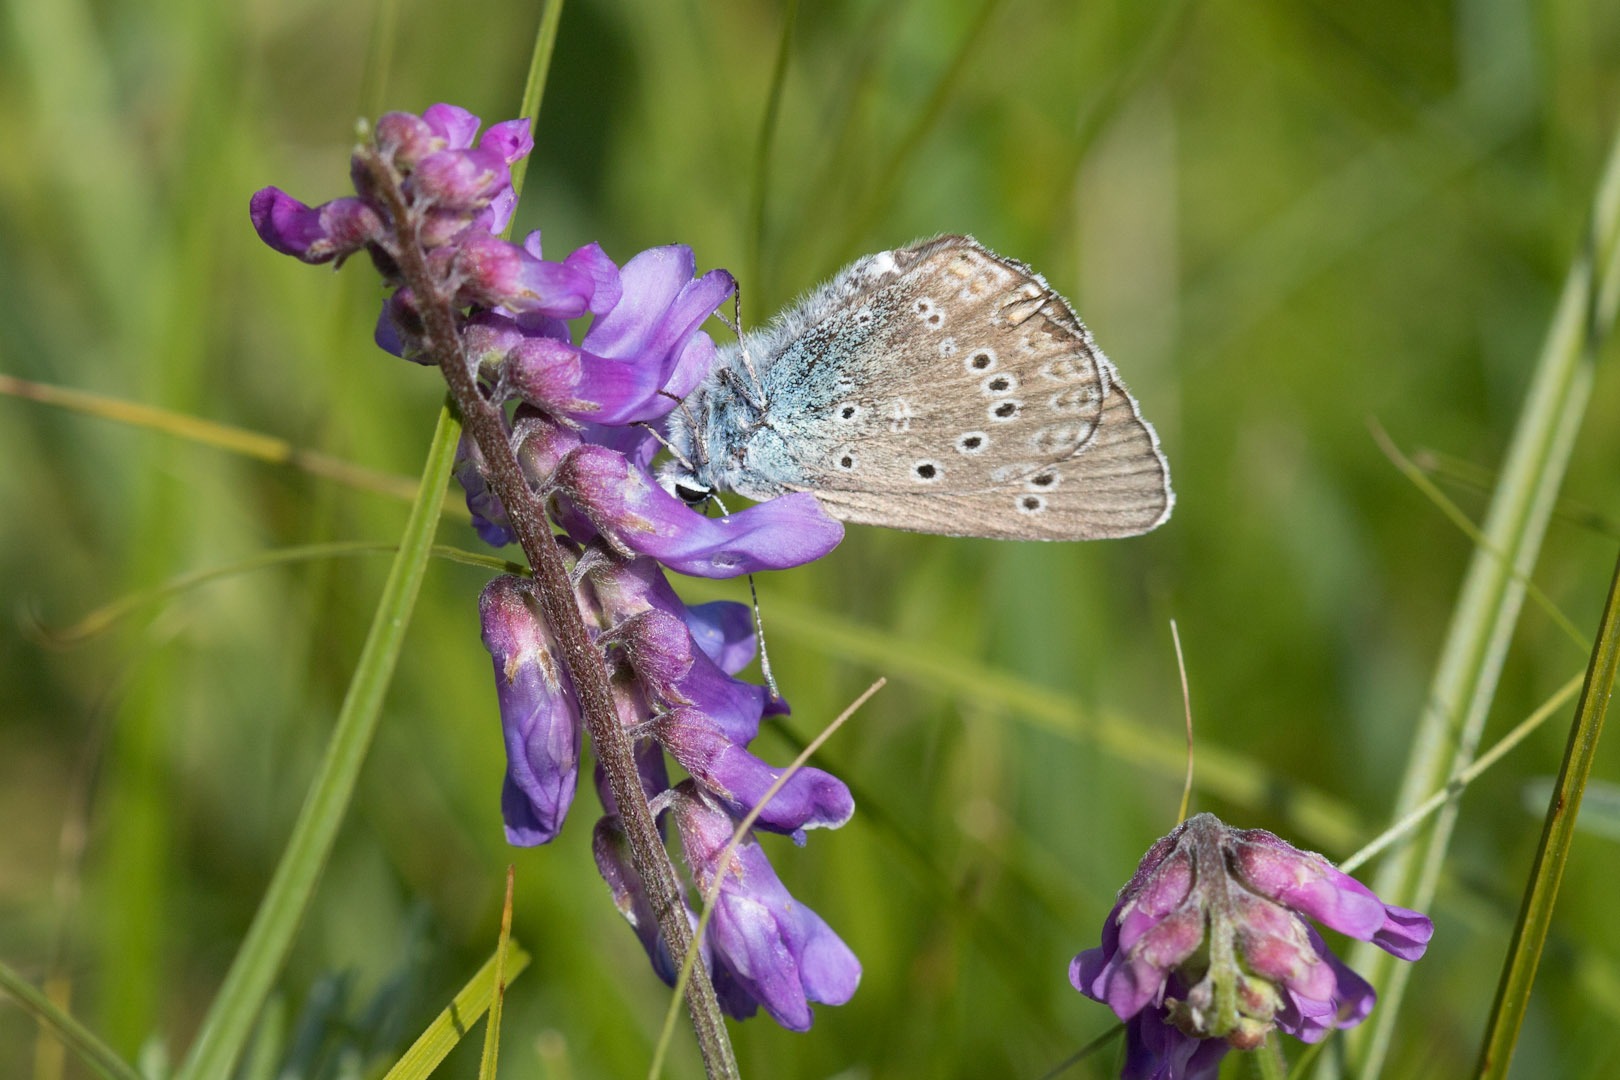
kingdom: Animalia
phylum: Arthropoda
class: Insecta
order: Lepidoptera
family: Lycaenidae
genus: Plebejus
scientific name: Plebejus amanda
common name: Isblåfugl
